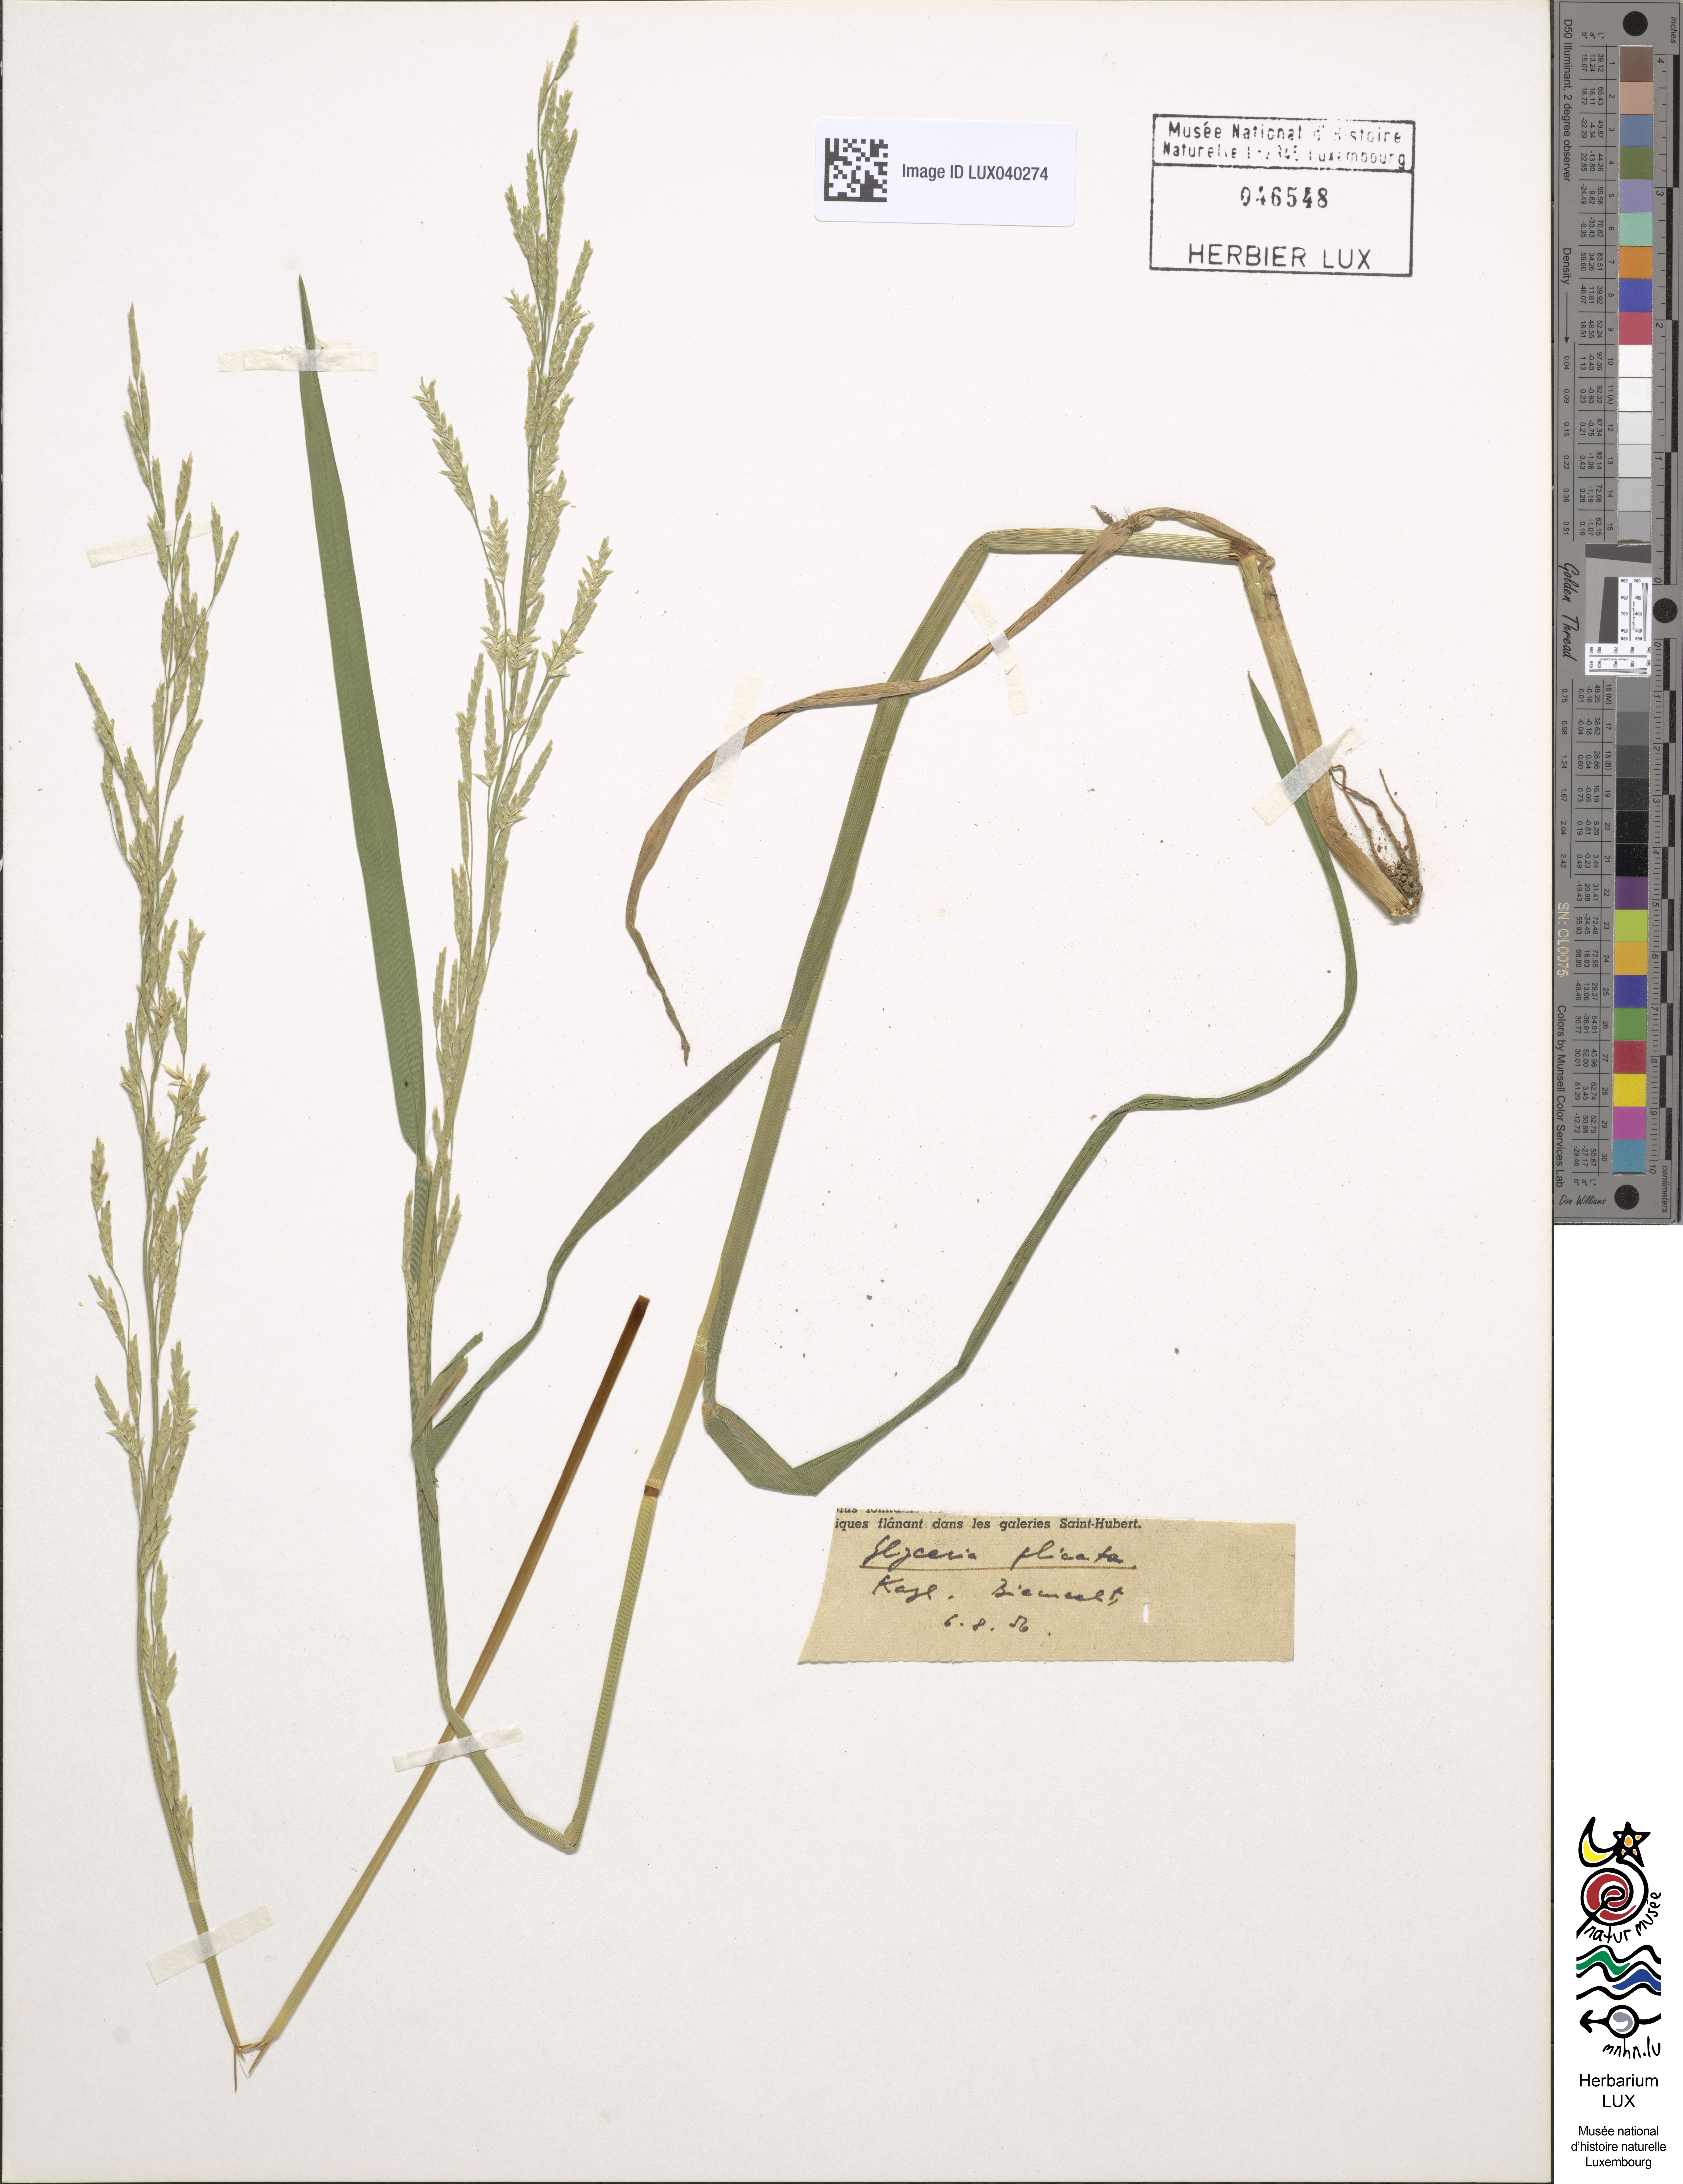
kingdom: Plantae
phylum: Tracheophyta
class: Liliopsida
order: Poales
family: Poaceae
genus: Glyceria
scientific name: Glyceria notata
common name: Plicate sweet-grass
